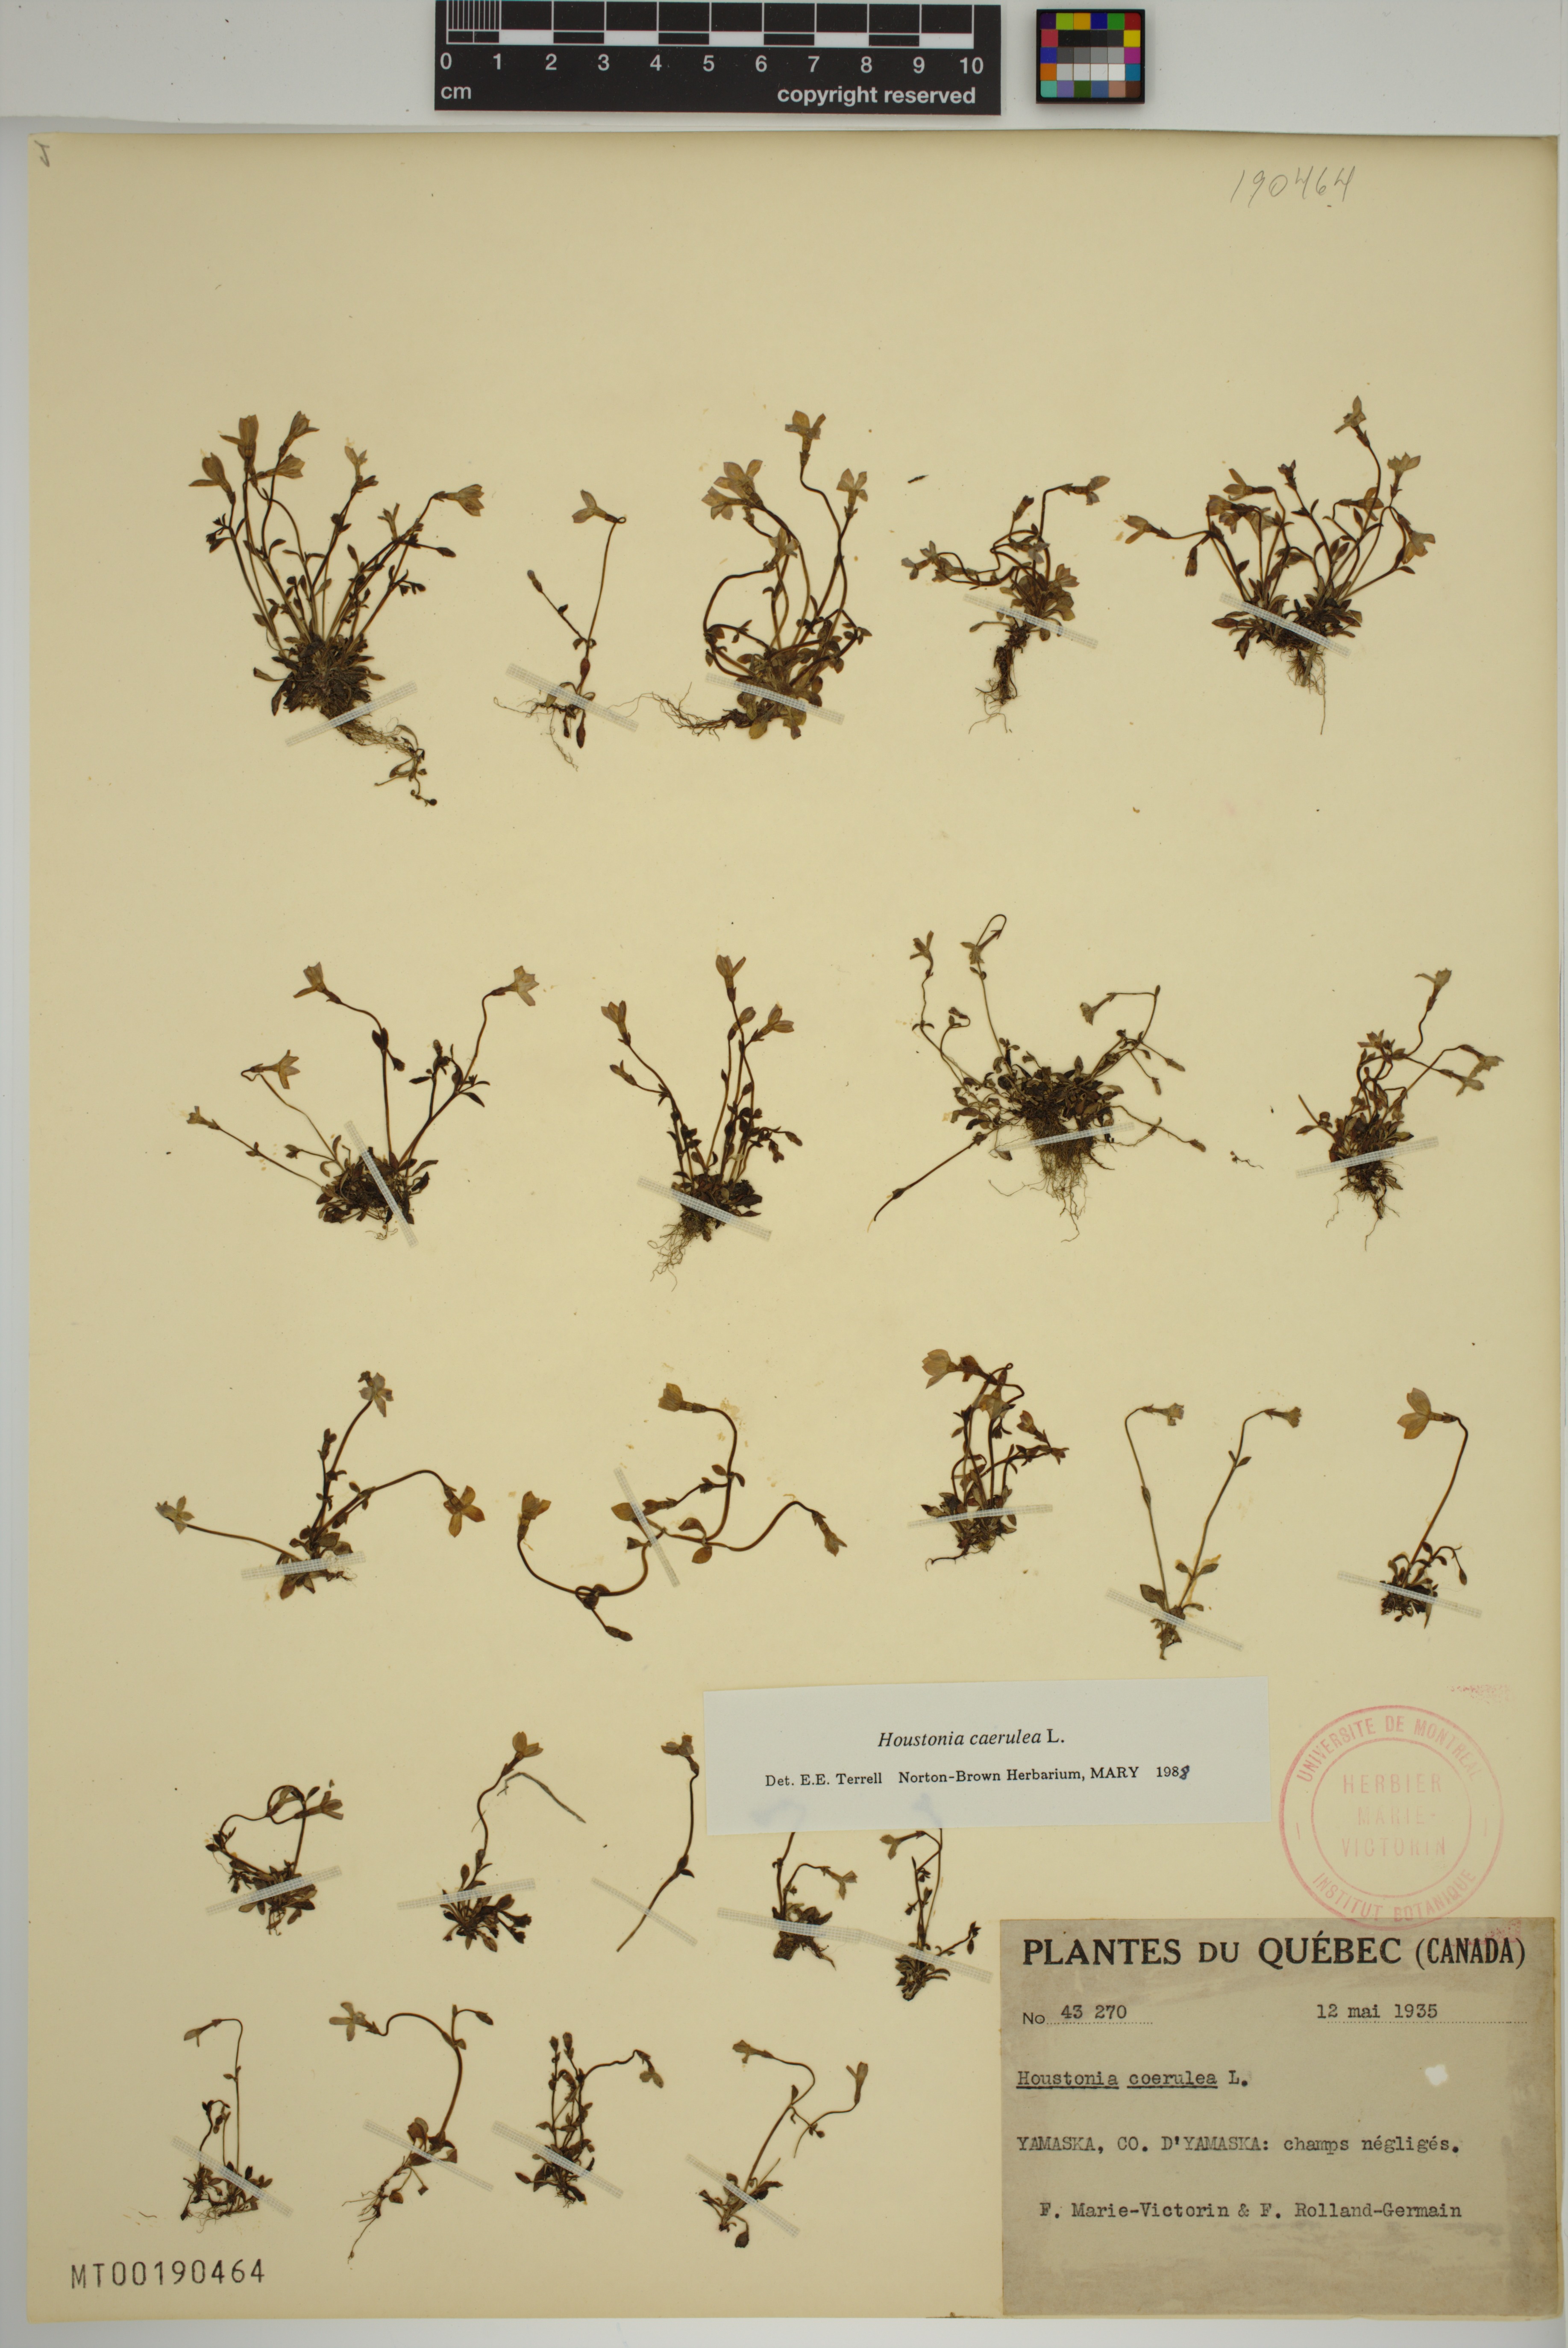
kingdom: Plantae
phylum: Tracheophyta
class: Magnoliopsida
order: Gentianales
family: Rubiaceae
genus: Houstonia
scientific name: Houstonia caerulea
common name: Bluets
